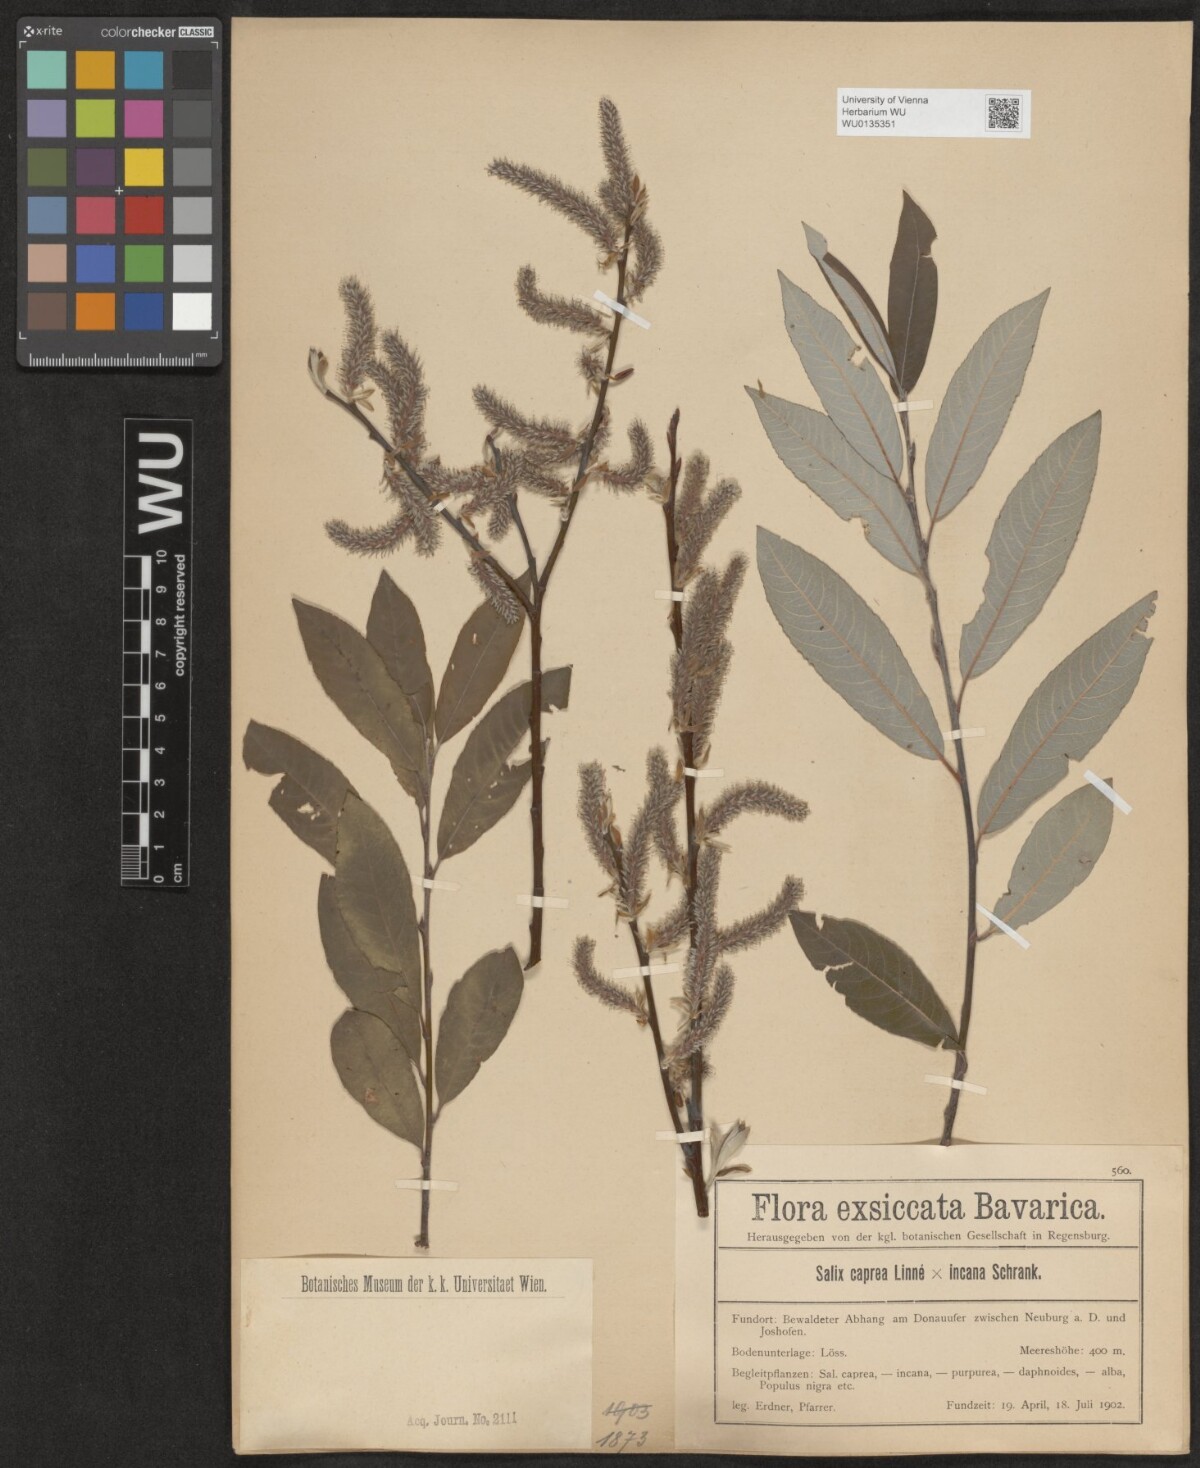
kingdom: Plantae
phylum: Tracheophyta
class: Magnoliopsida
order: Malpighiales
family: Salicaceae
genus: Salix
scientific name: Salix
